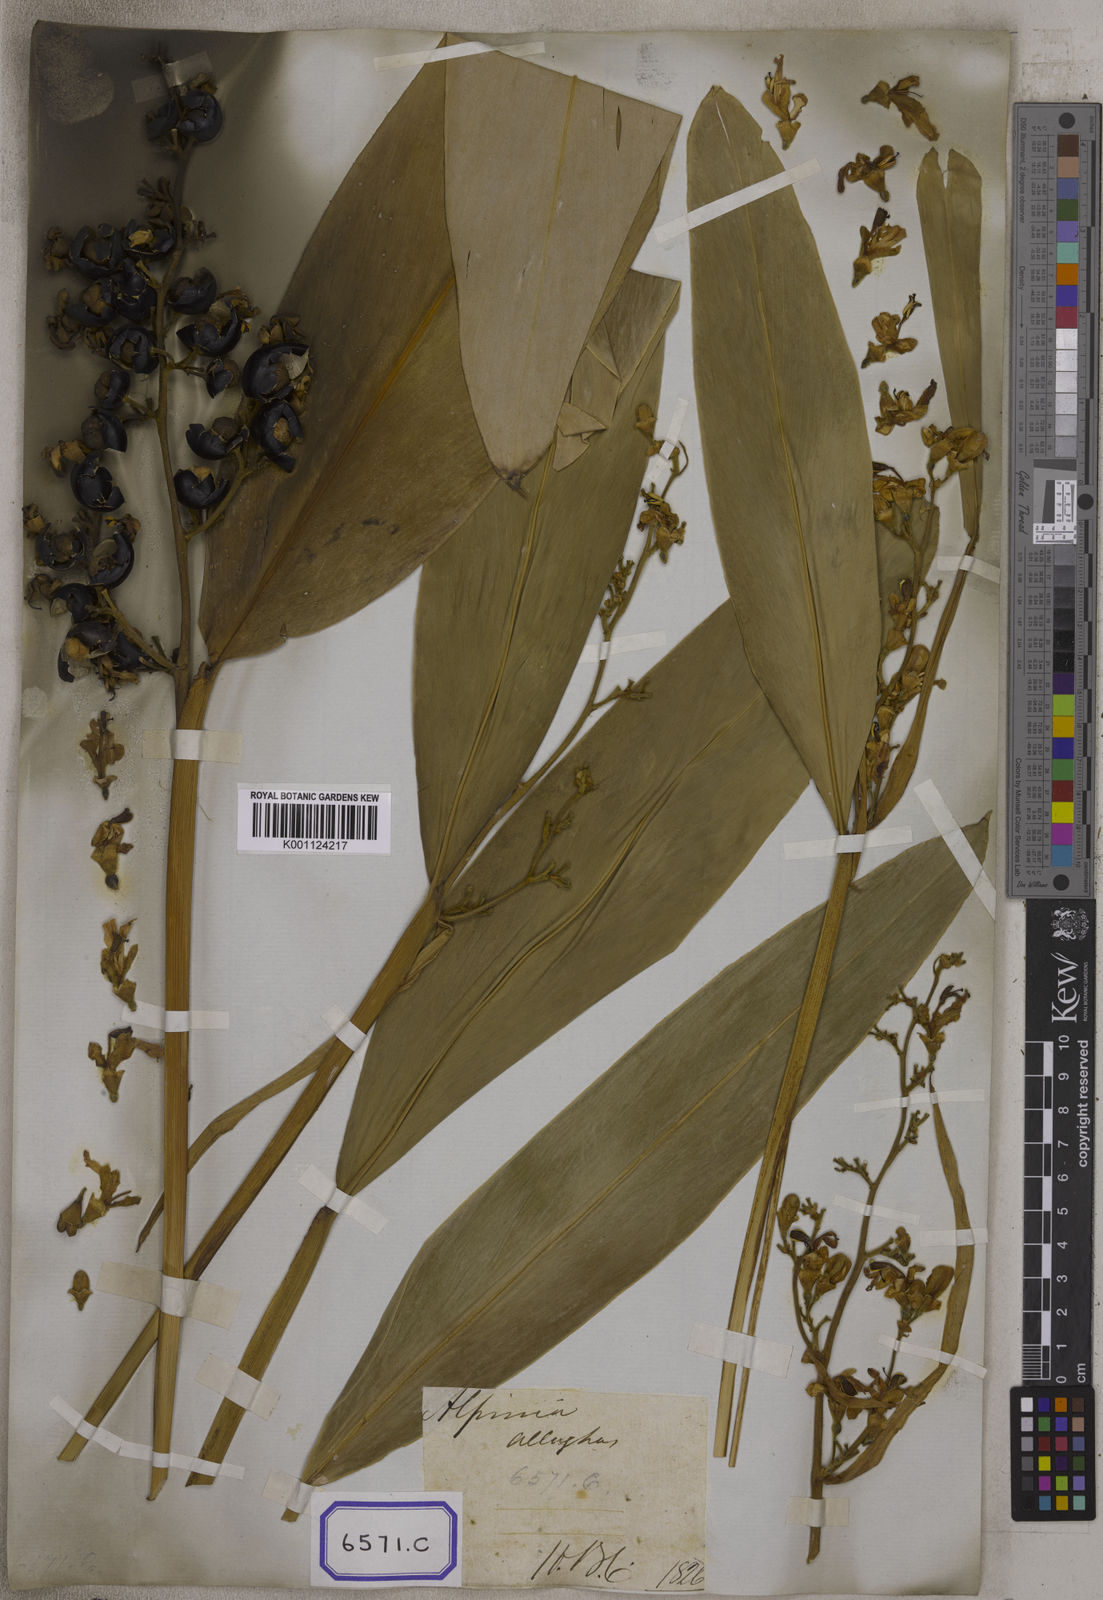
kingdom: Plantae
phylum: Tracheophyta
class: Liliopsida
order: Zingiberales
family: Zingiberaceae
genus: Alpinia
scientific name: Alpinia nigra
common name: Black fruited galanga
